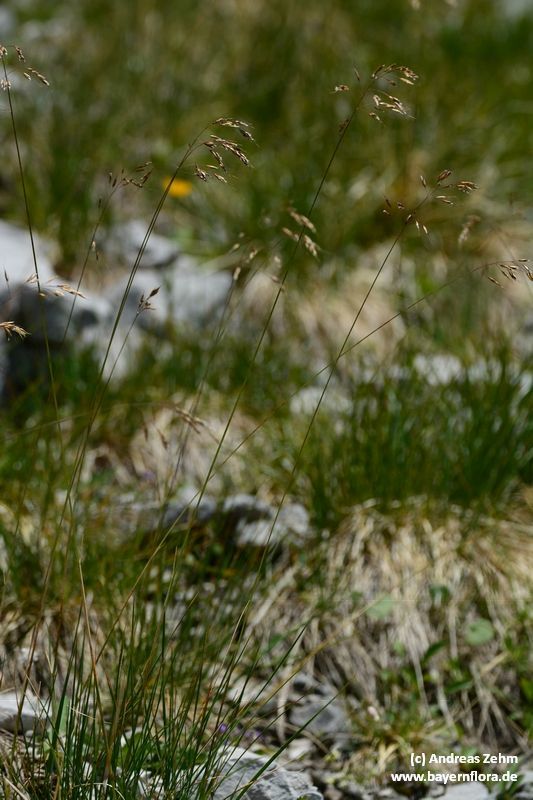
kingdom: Plantae
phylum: Tracheophyta
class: Liliopsida
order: Poales
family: Poaceae
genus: Helictotrichon
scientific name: Helictotrichon parlatorei
